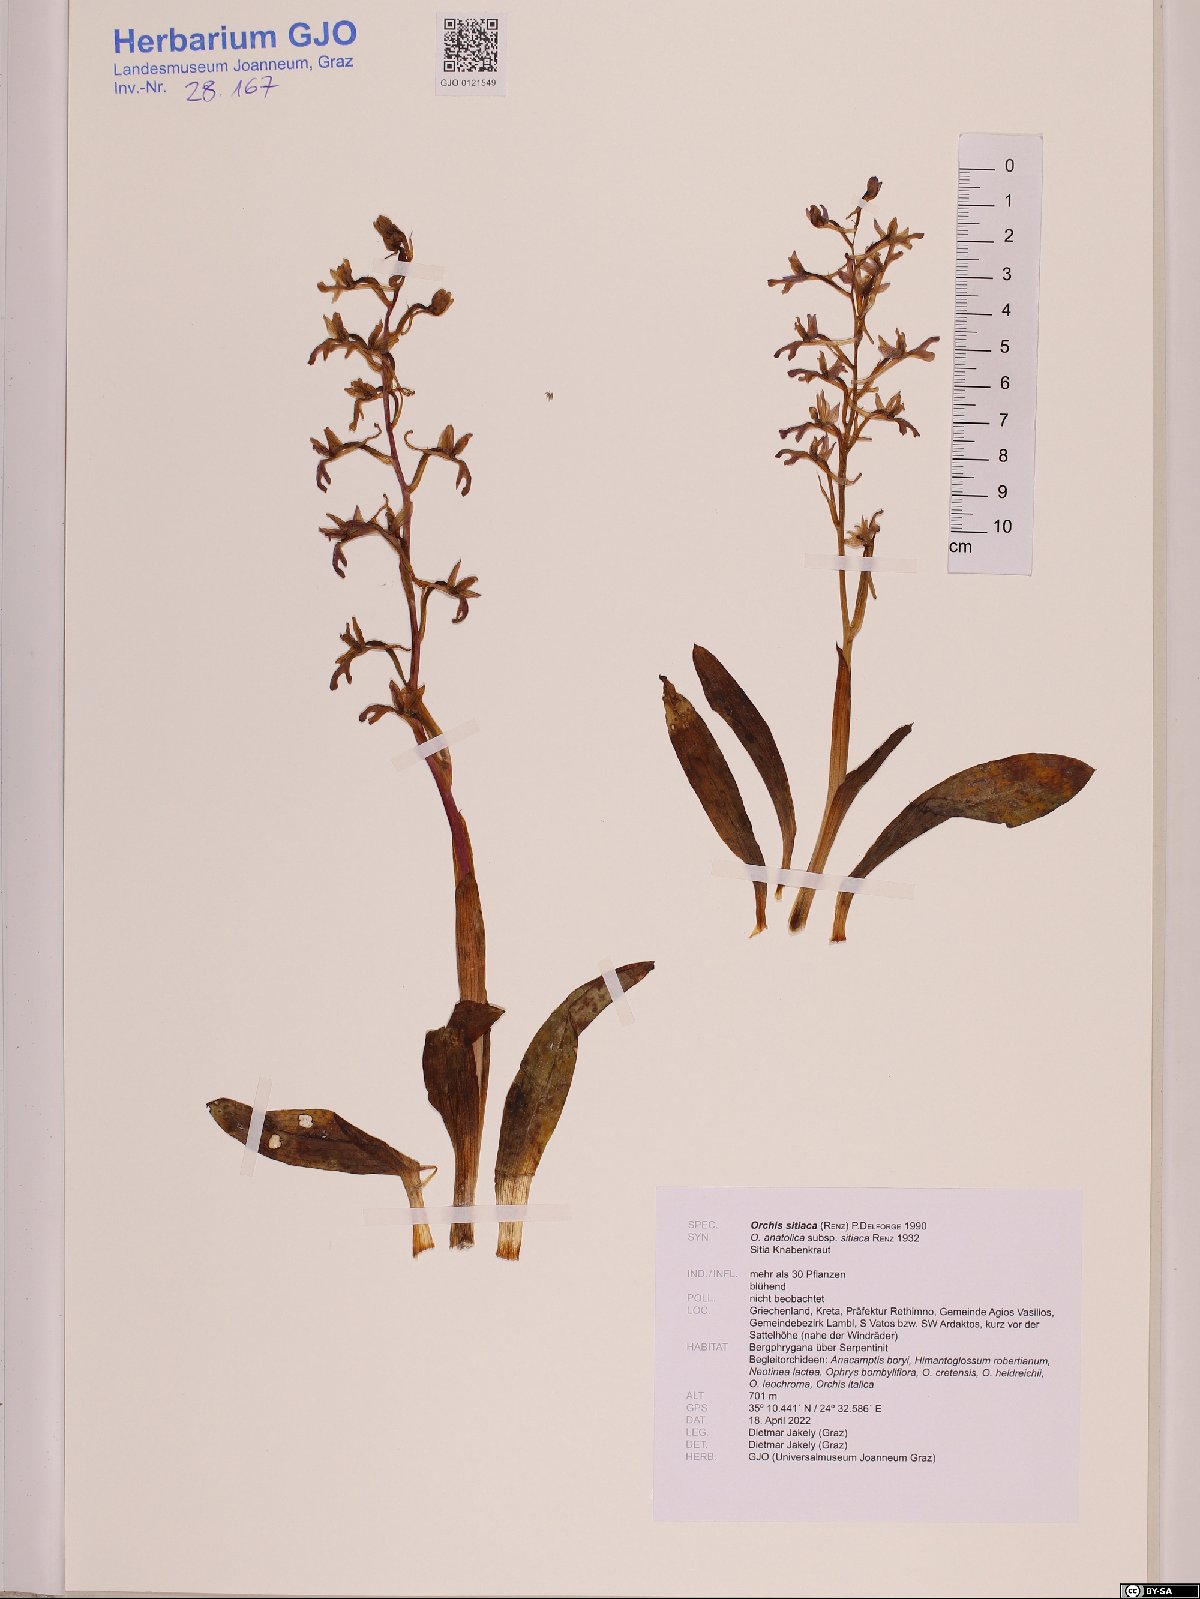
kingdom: Plantae
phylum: Tracheophyta
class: Liliopsida
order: Asparagales
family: Orchidaceae
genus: Orchis
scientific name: Orchis sitiaca
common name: Cretan orchid
